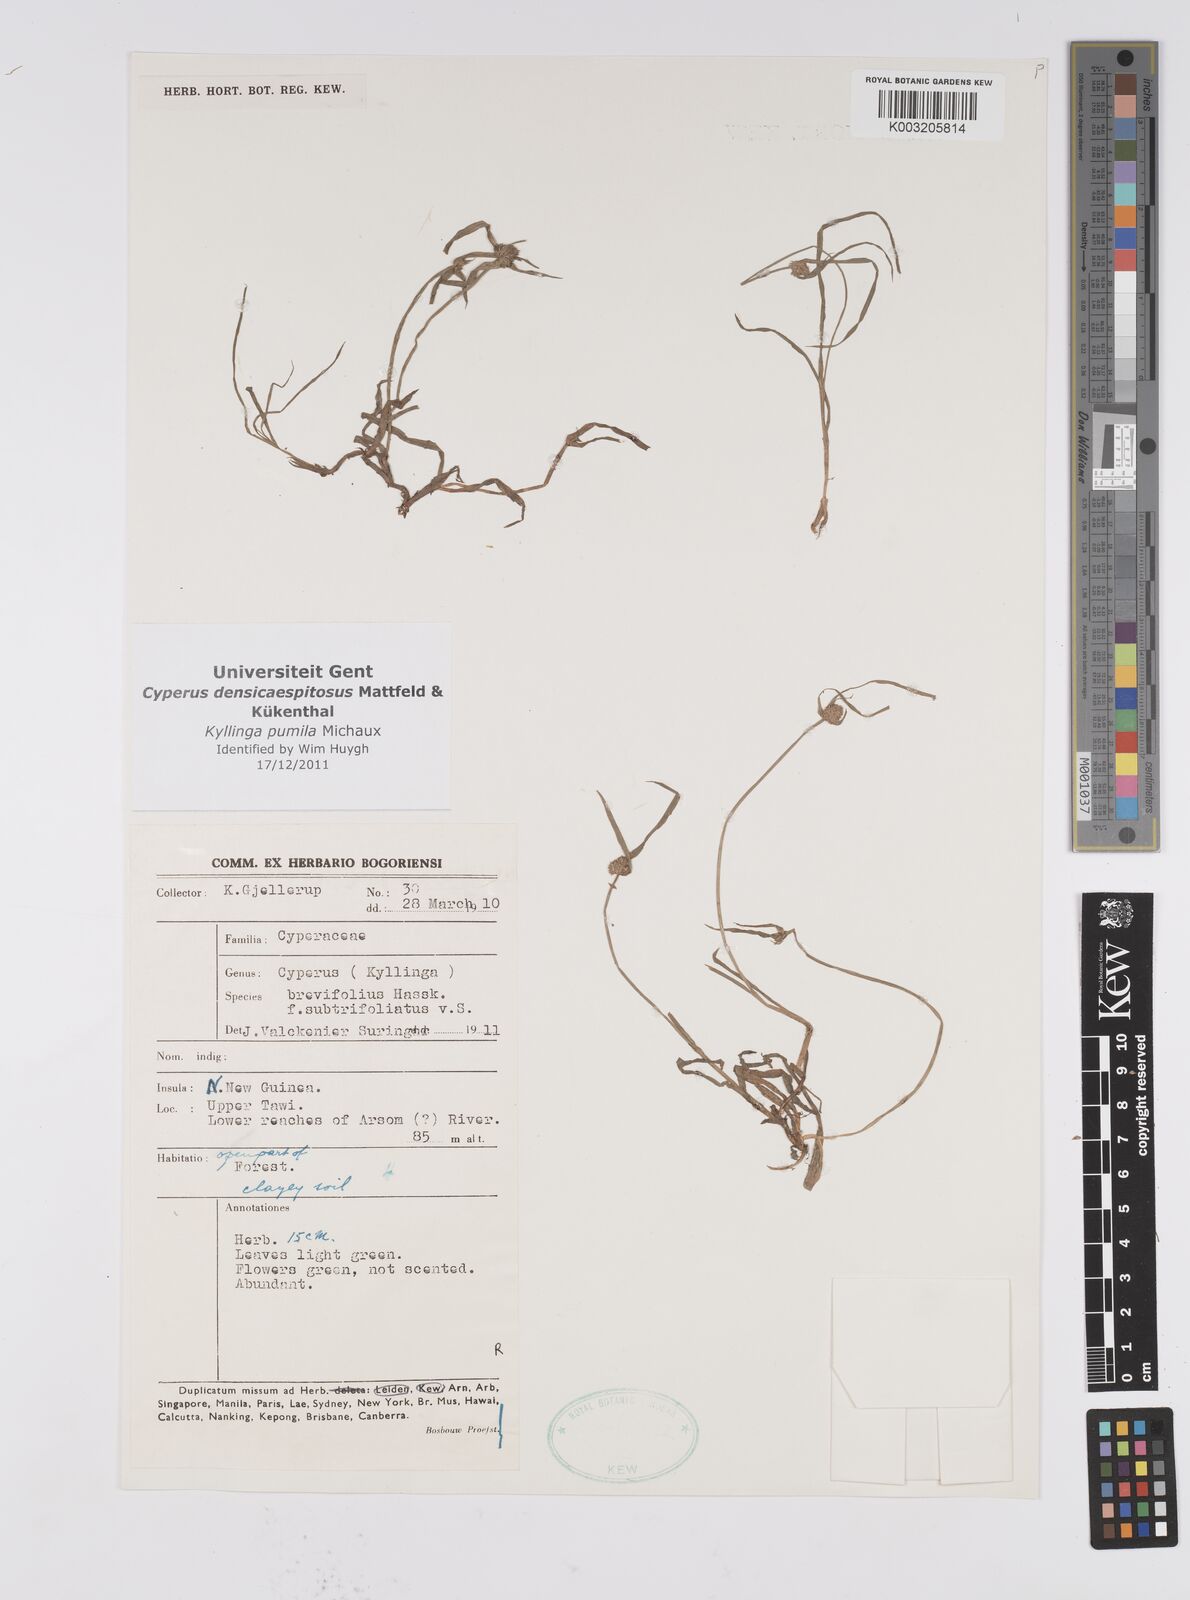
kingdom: Plantae
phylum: Tracheophyta
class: Liliopsida
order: Poales
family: Cyperaceae
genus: Cyperus
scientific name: Cyperus pumilus
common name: Low flatsedge
